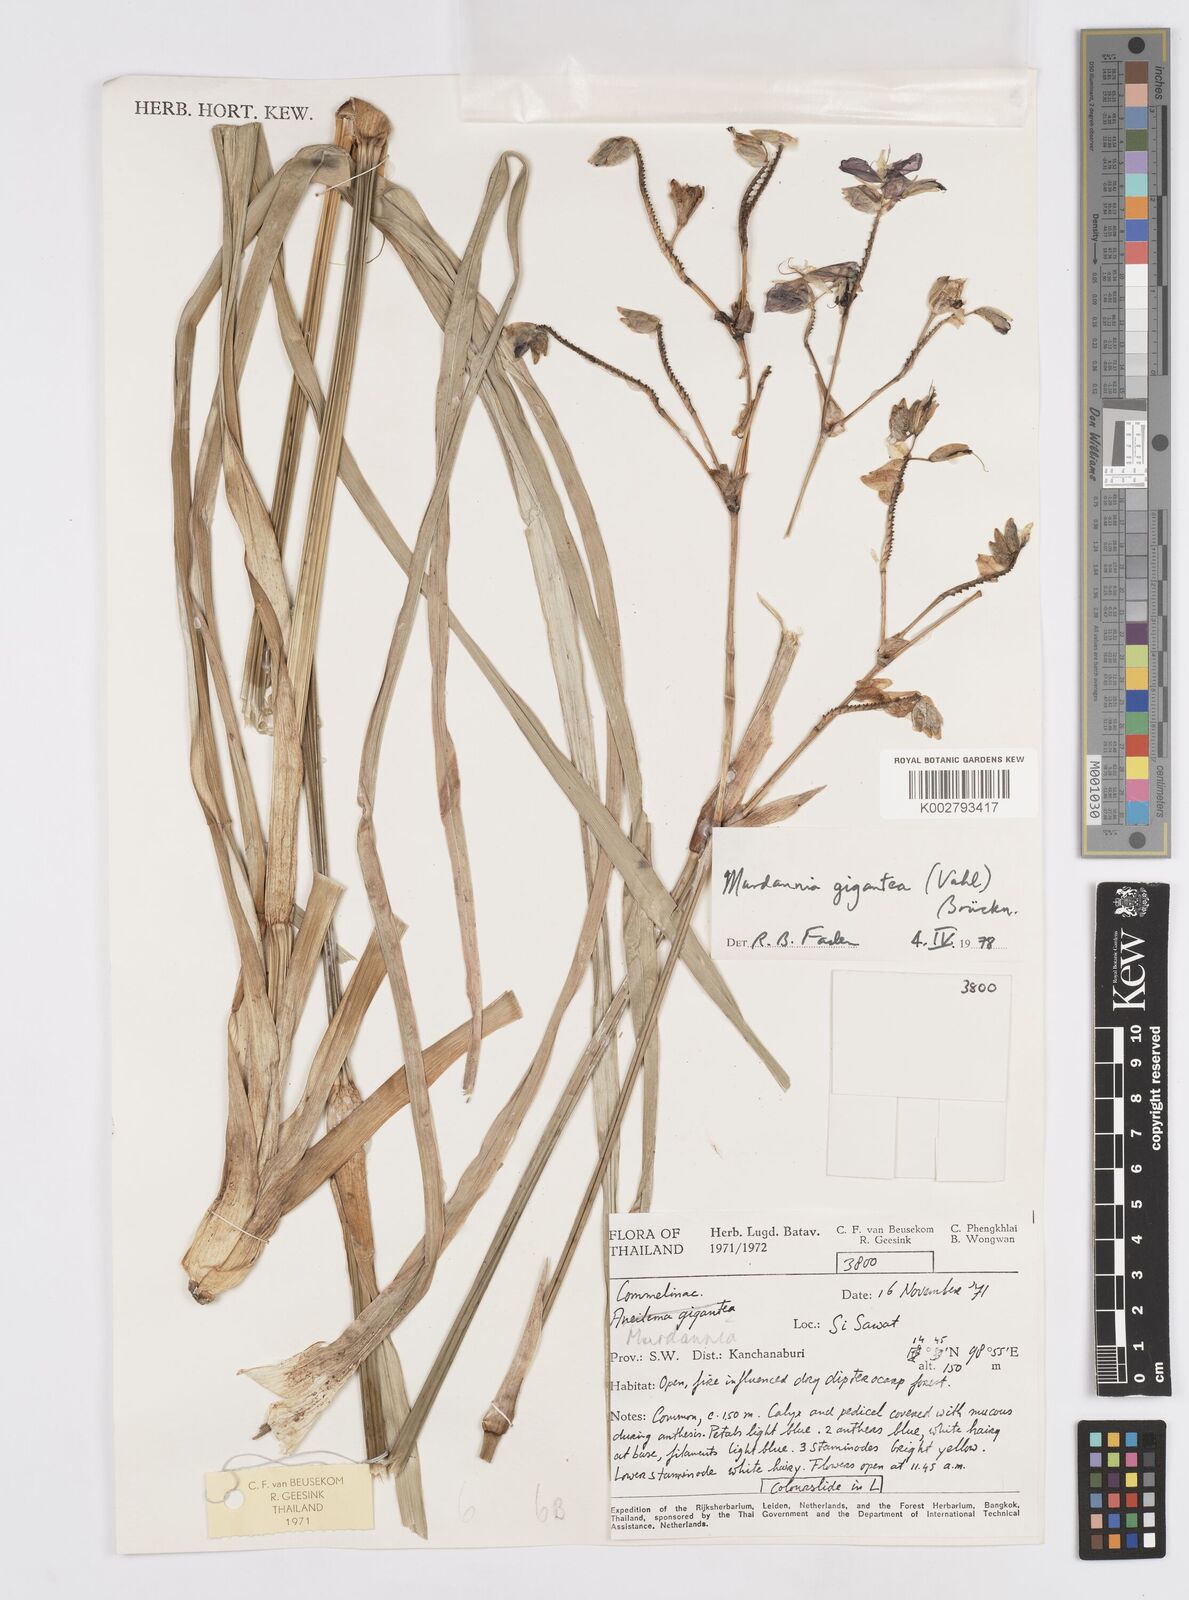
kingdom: Plantae
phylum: Tracheophyta
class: Liliopsida
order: Commelinales
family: Commelinaceae
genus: Murdannia
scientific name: Murdannia gigantea
